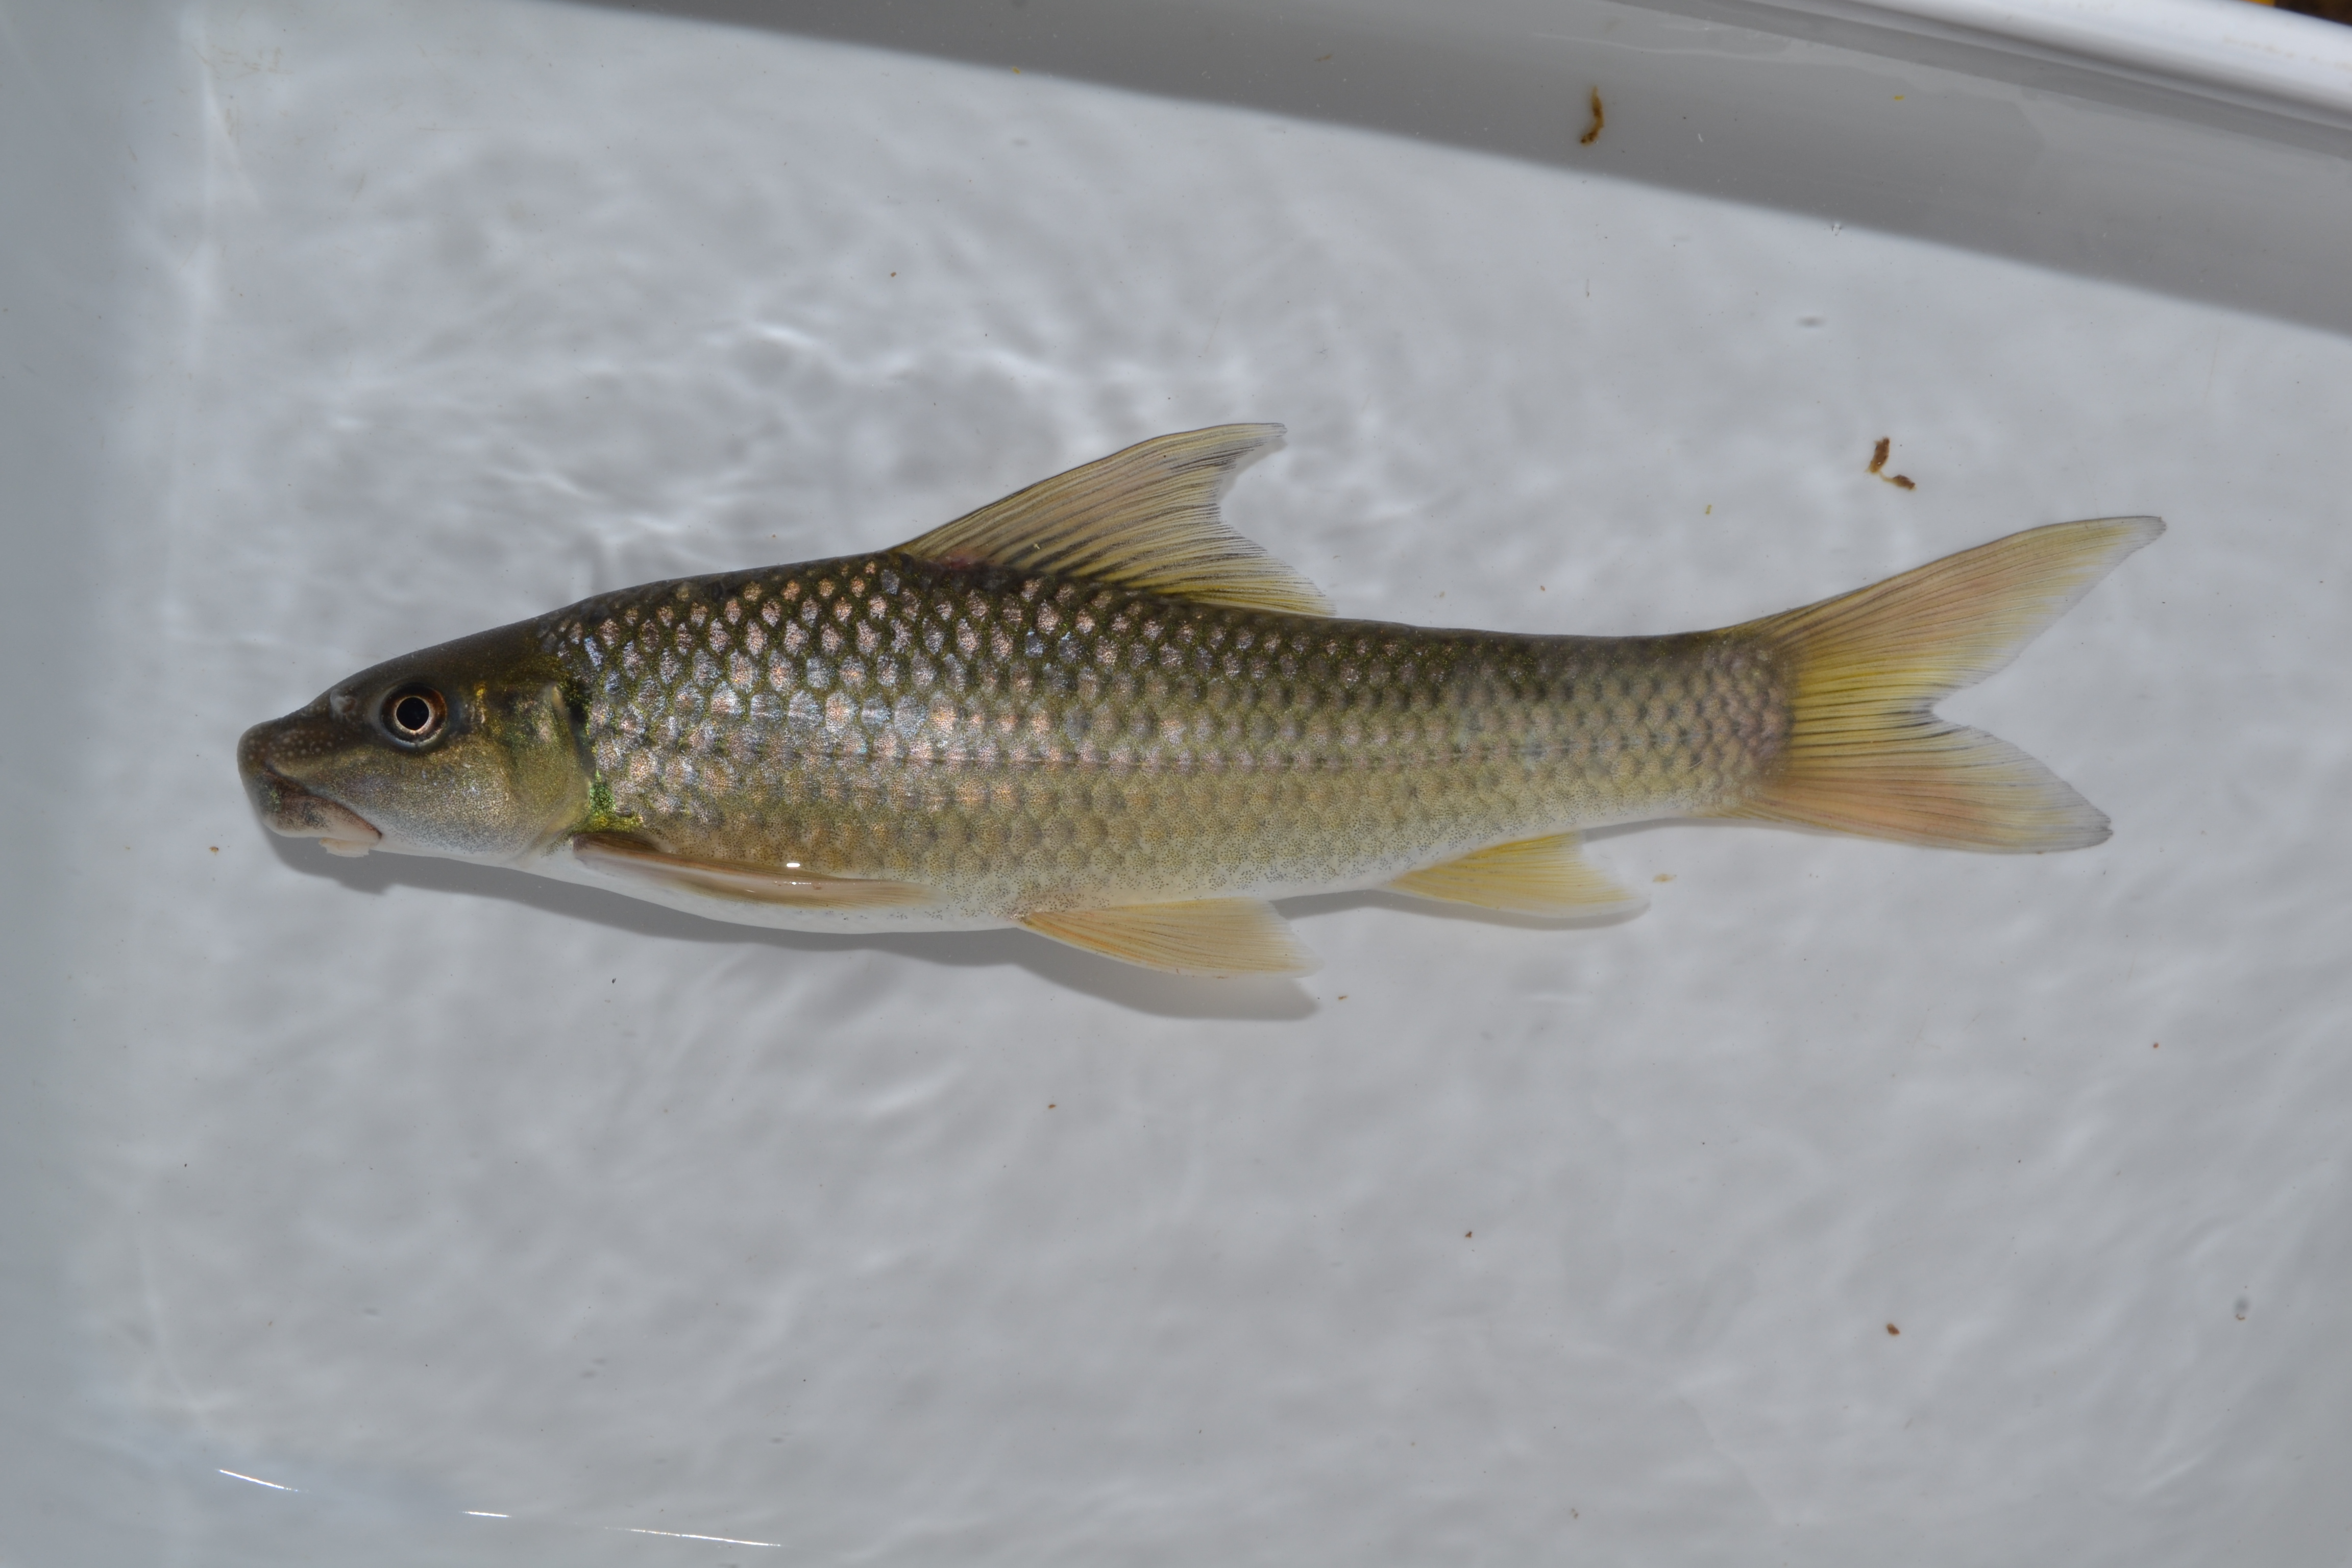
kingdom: Animalia
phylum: Chordata
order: Cypriniformes
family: Cyprinidae
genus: Labeo
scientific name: Labeo molybdinus
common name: Leaden labeo
